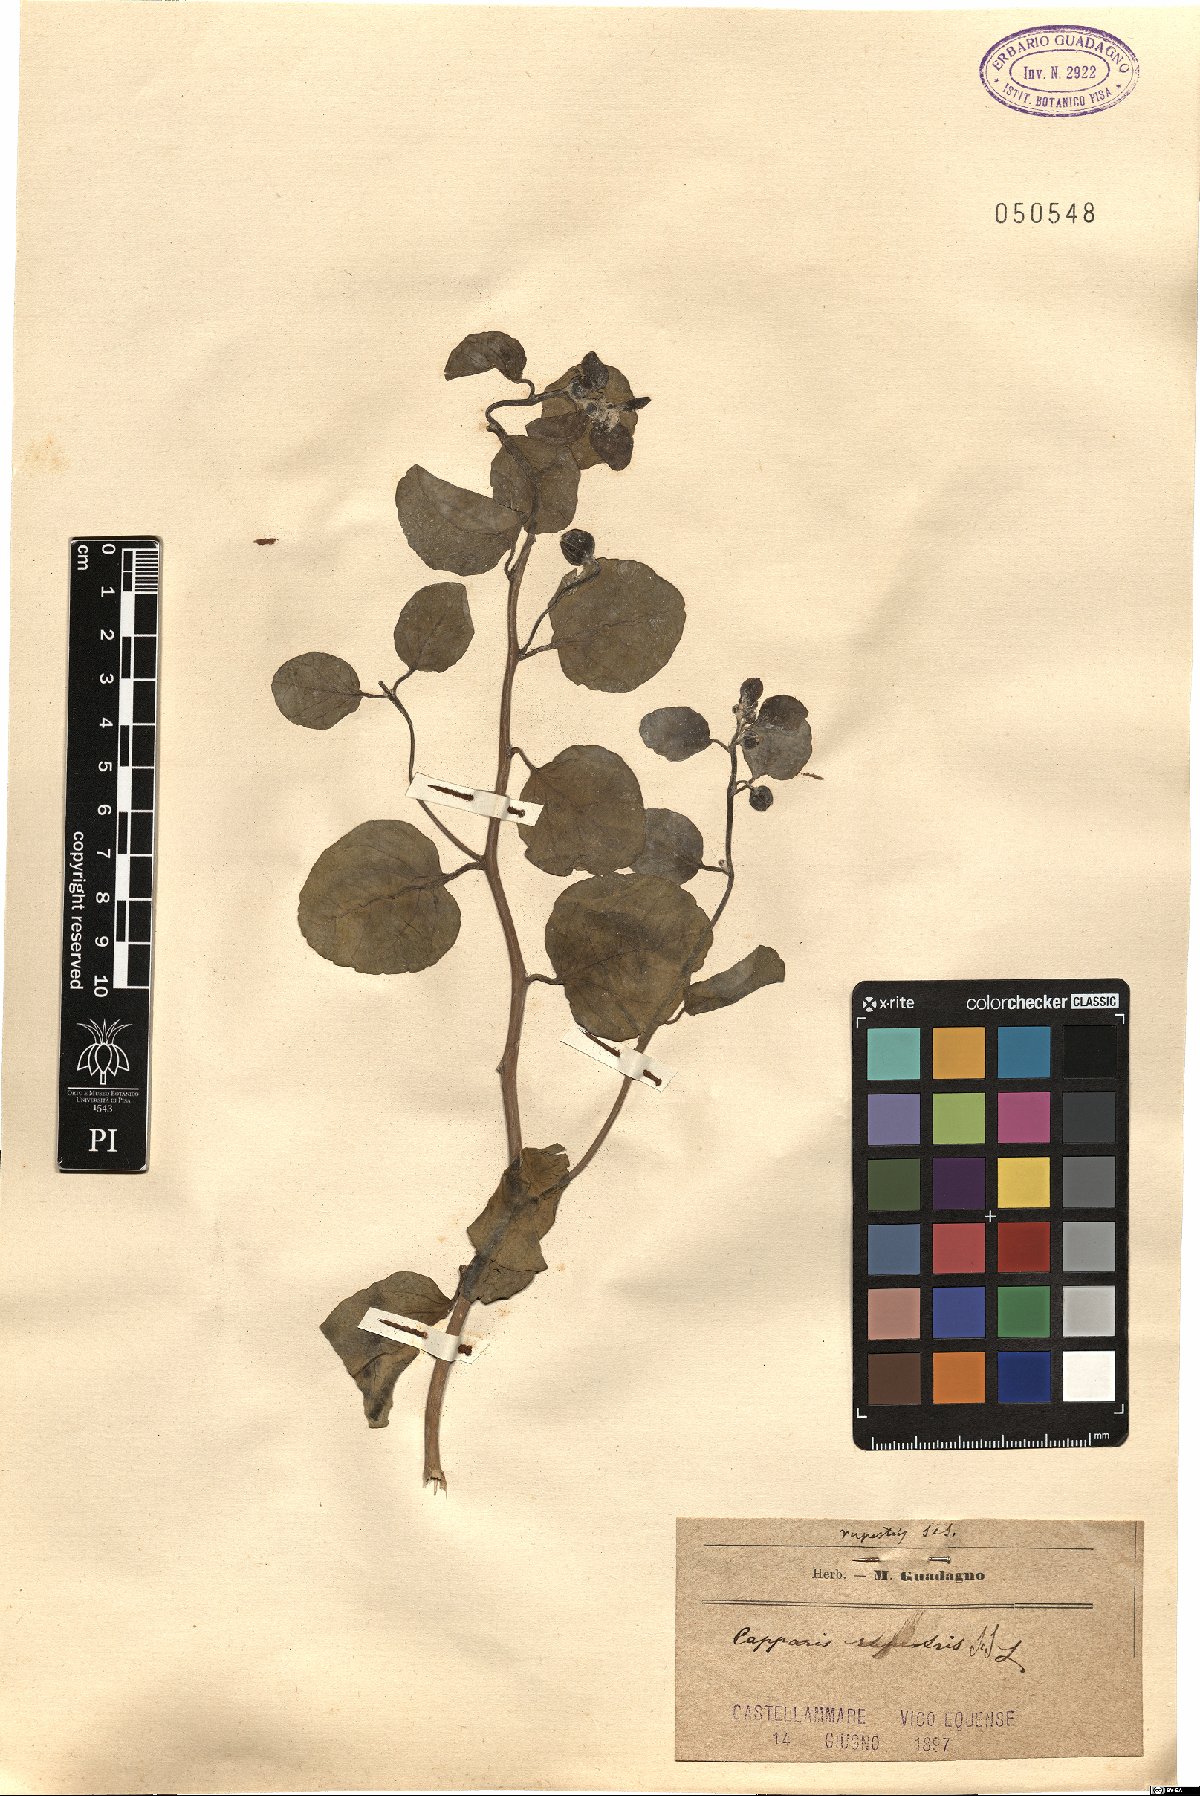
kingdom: Plantae
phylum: Tracheophyta
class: Magnoliopsida
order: Brassicales
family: Capparaceae
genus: Capparis
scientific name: Capparis spinosa
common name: Caper
